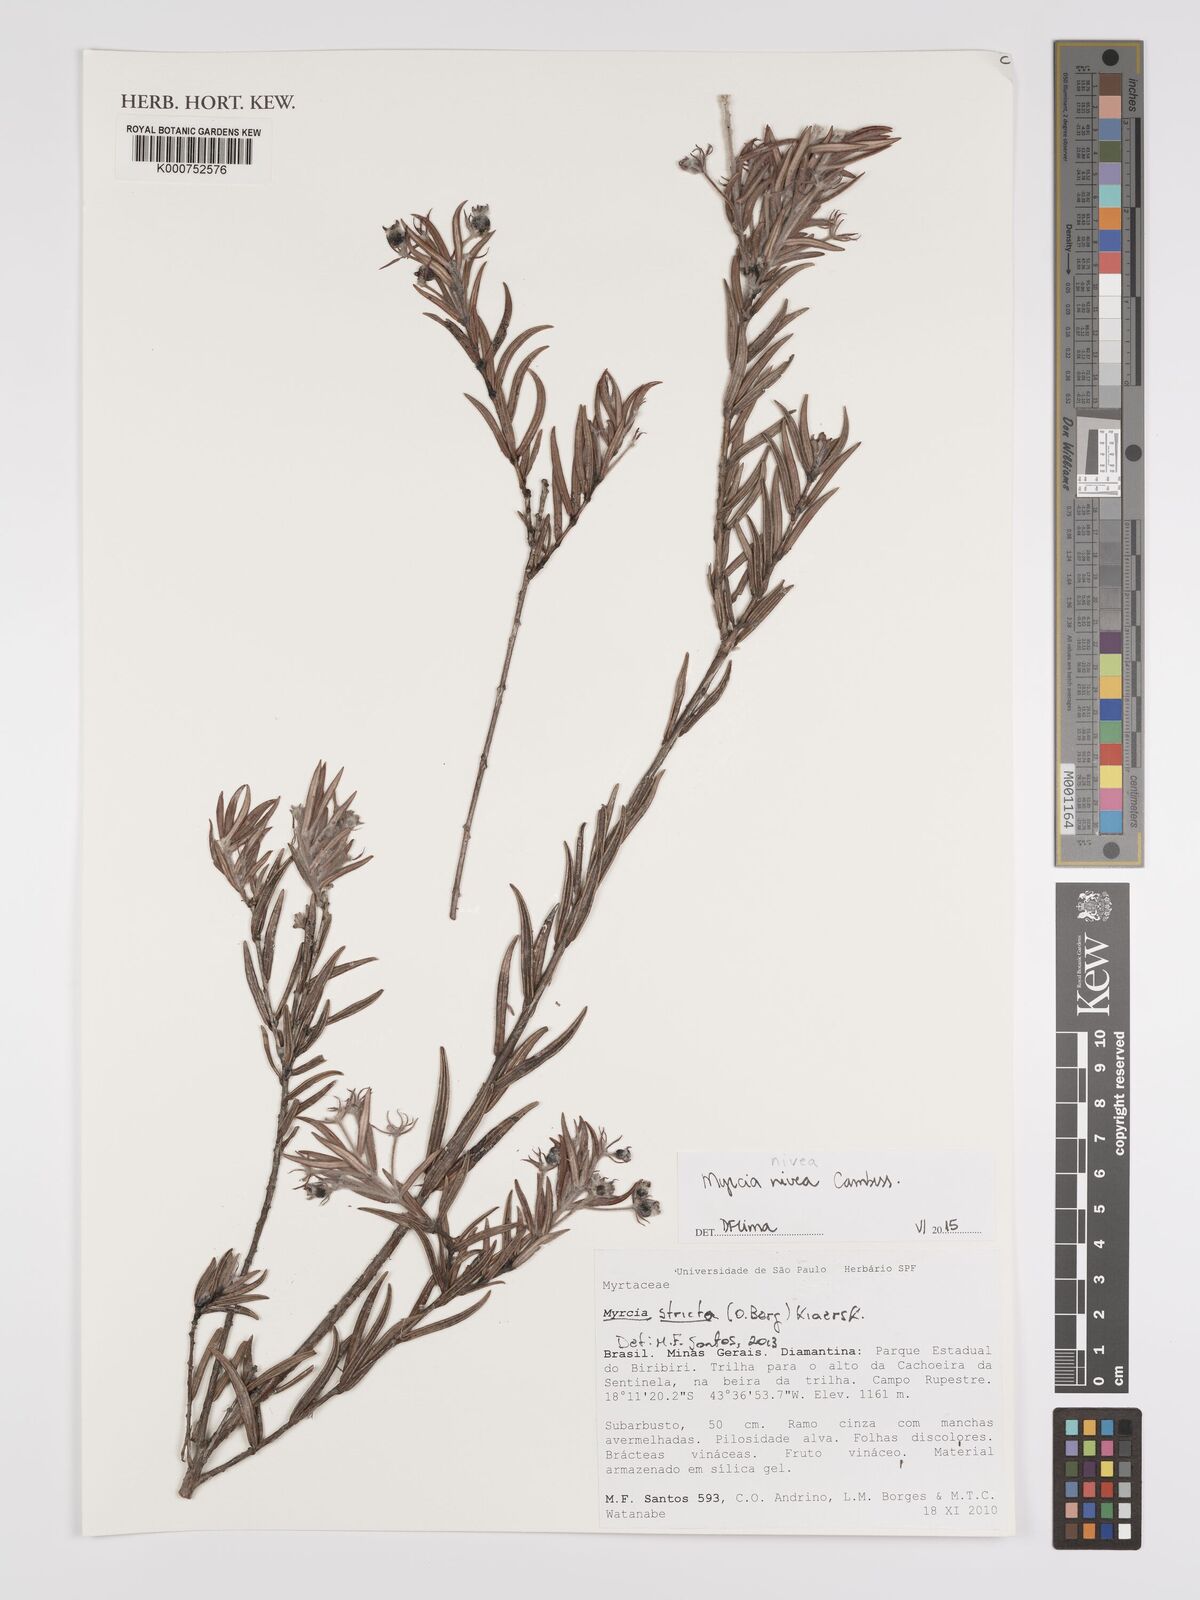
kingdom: Plantae
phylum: Tracheophyta
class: Magnoliopsida
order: Myrtales
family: Myrtaceae
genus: Myrcia
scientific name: Myrcia nivea
